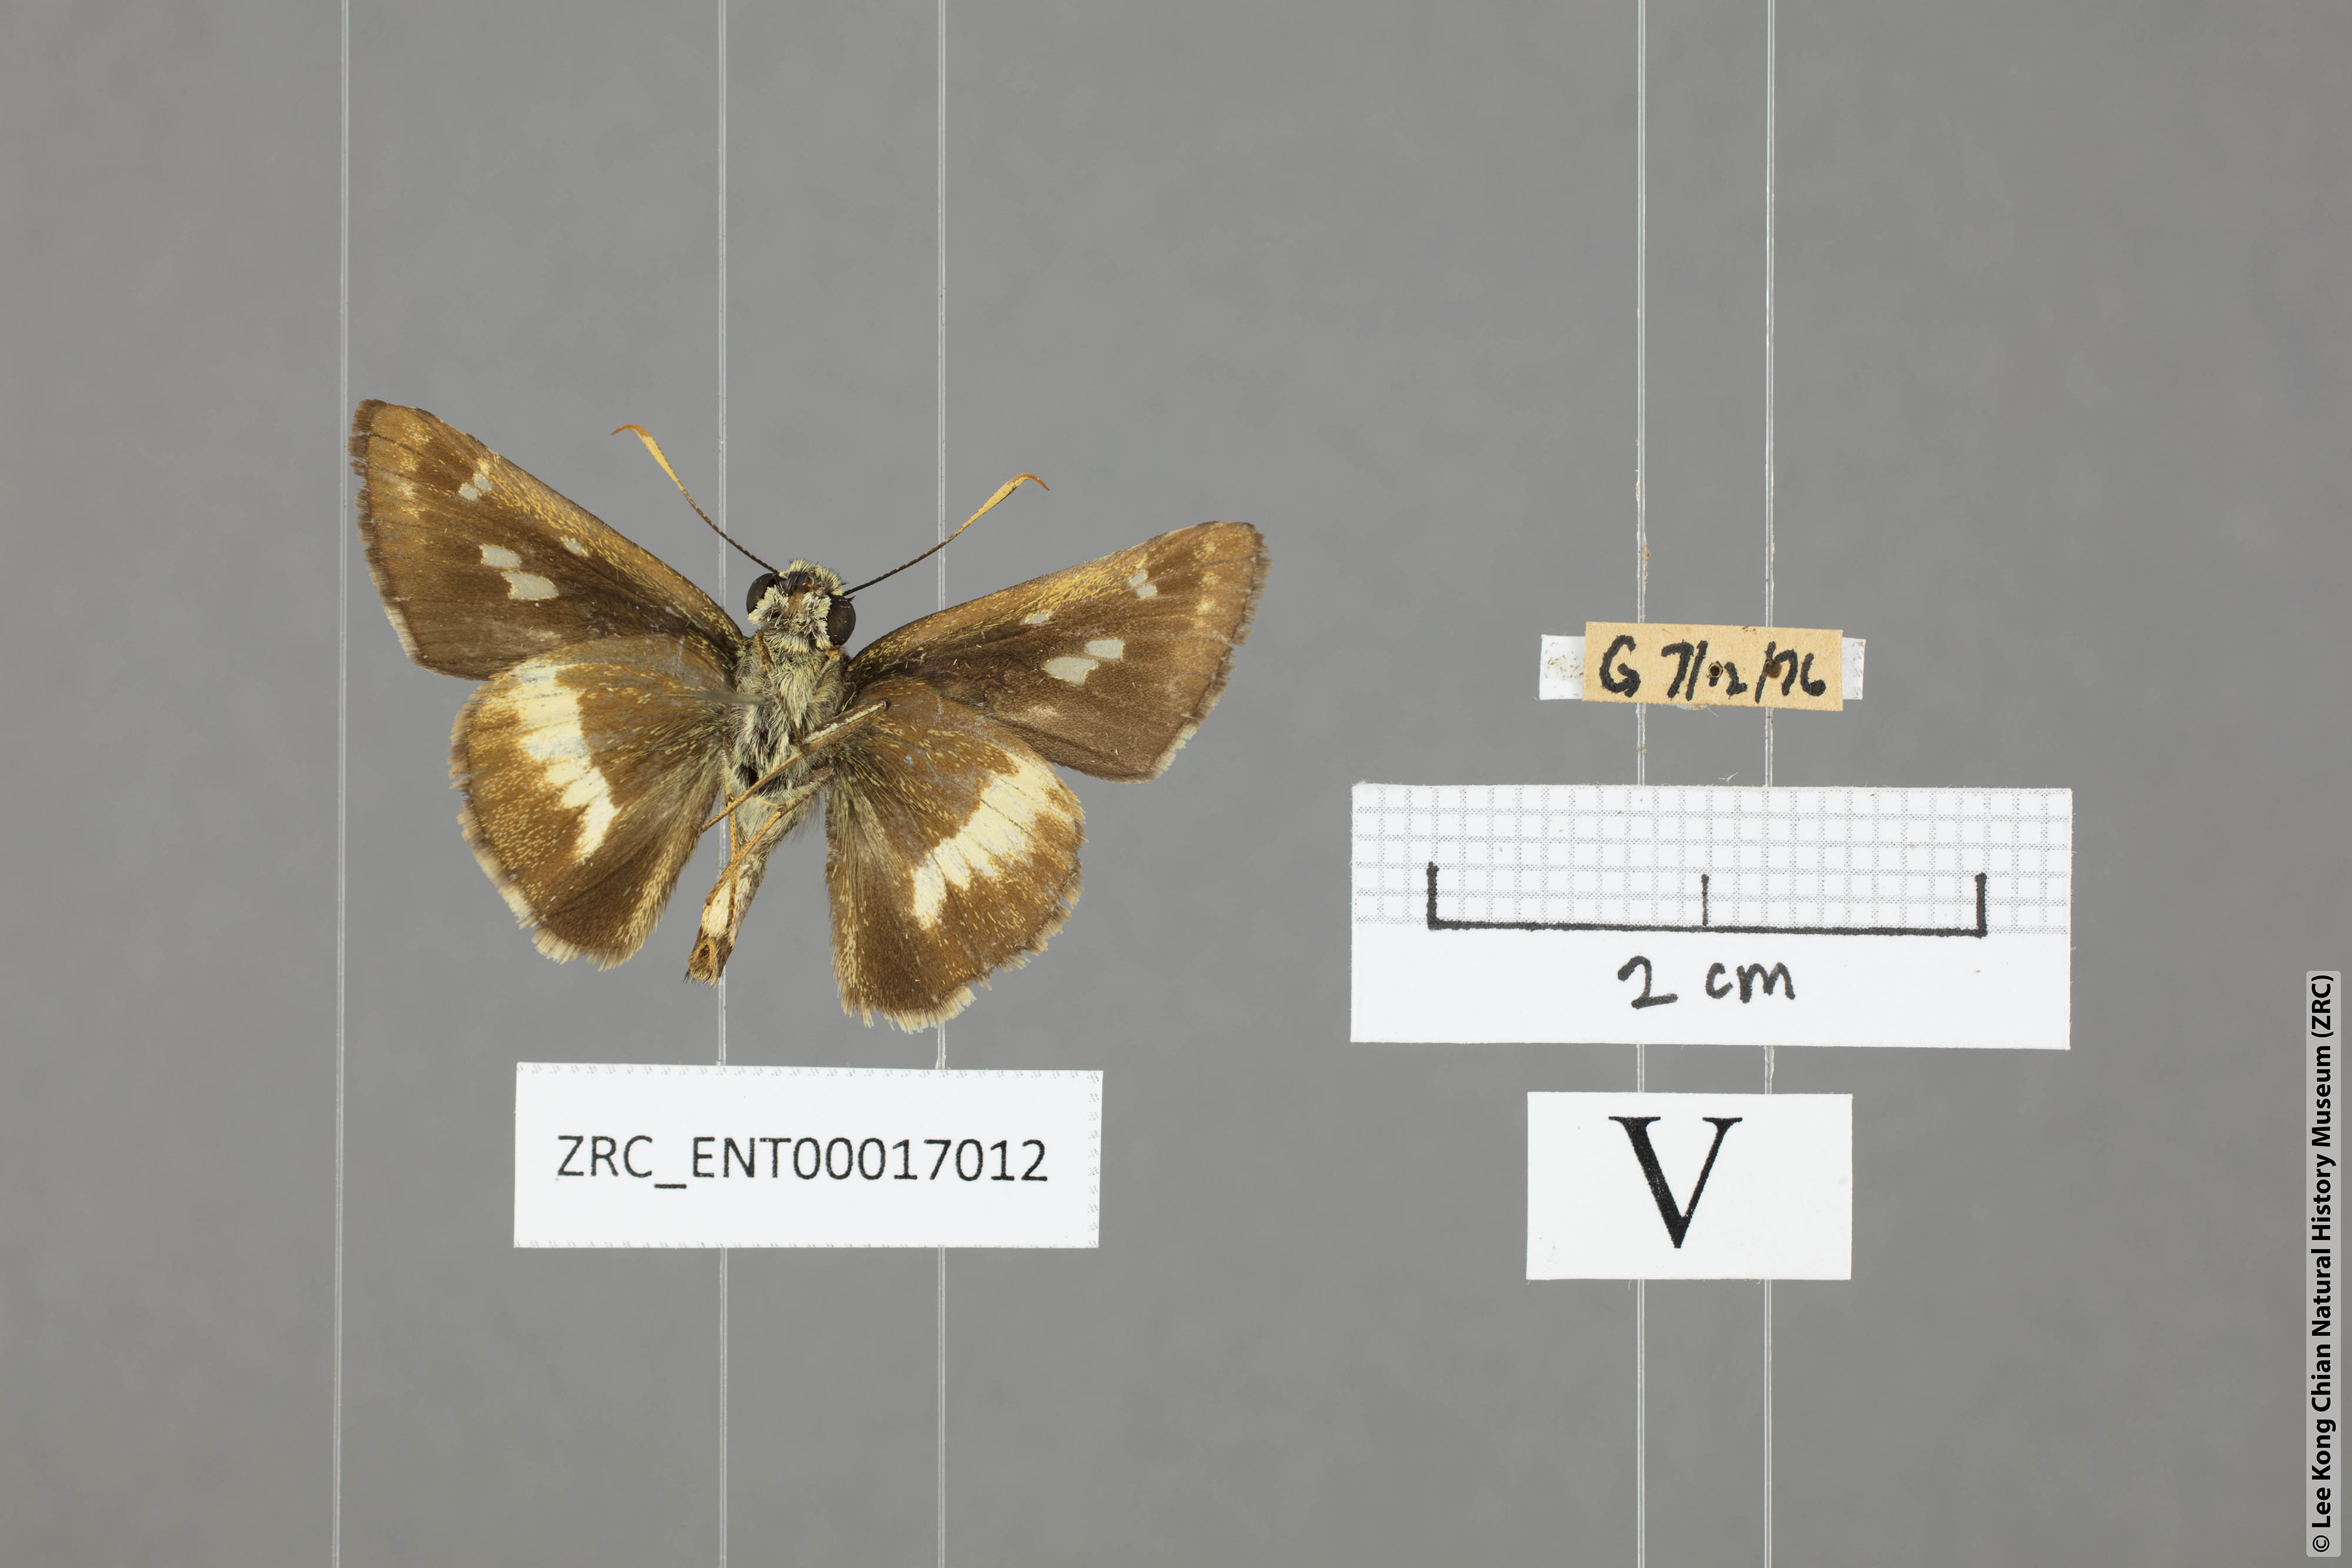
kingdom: Animalia
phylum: Arthropoda
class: Insecta
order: Lepidoptera
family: Hesperiidae
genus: Halpe
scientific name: Halpe
